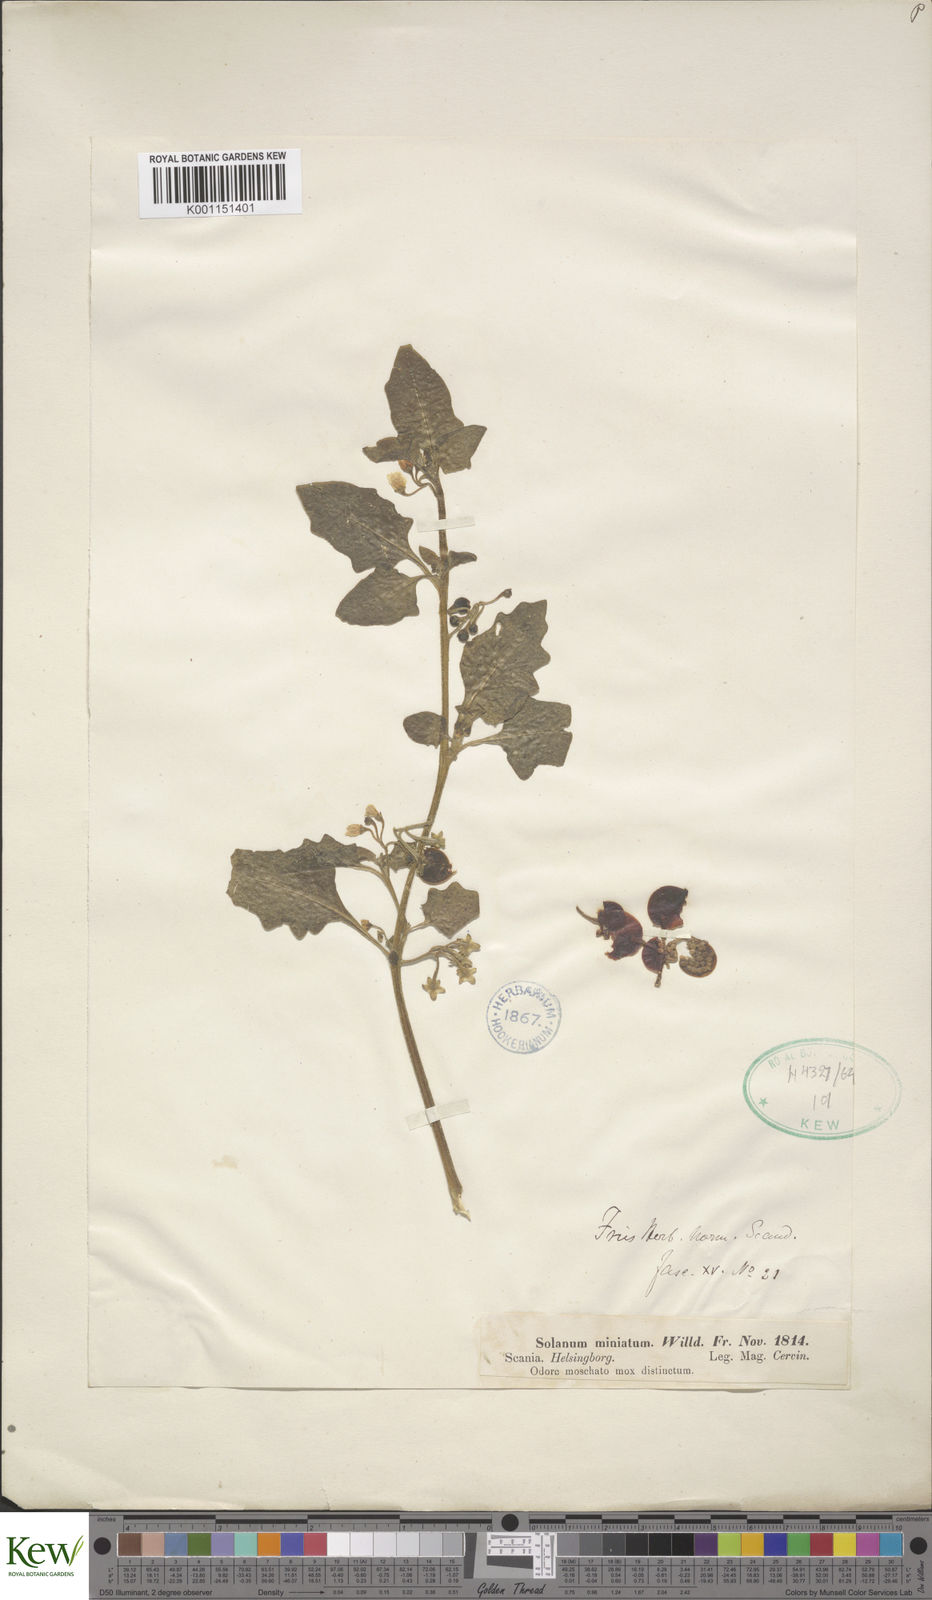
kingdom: Plantae
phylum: Tracheophyta
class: Magnoliopsida
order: Solanales
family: Solanaceae
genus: Solanum
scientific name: Solanum alatum
